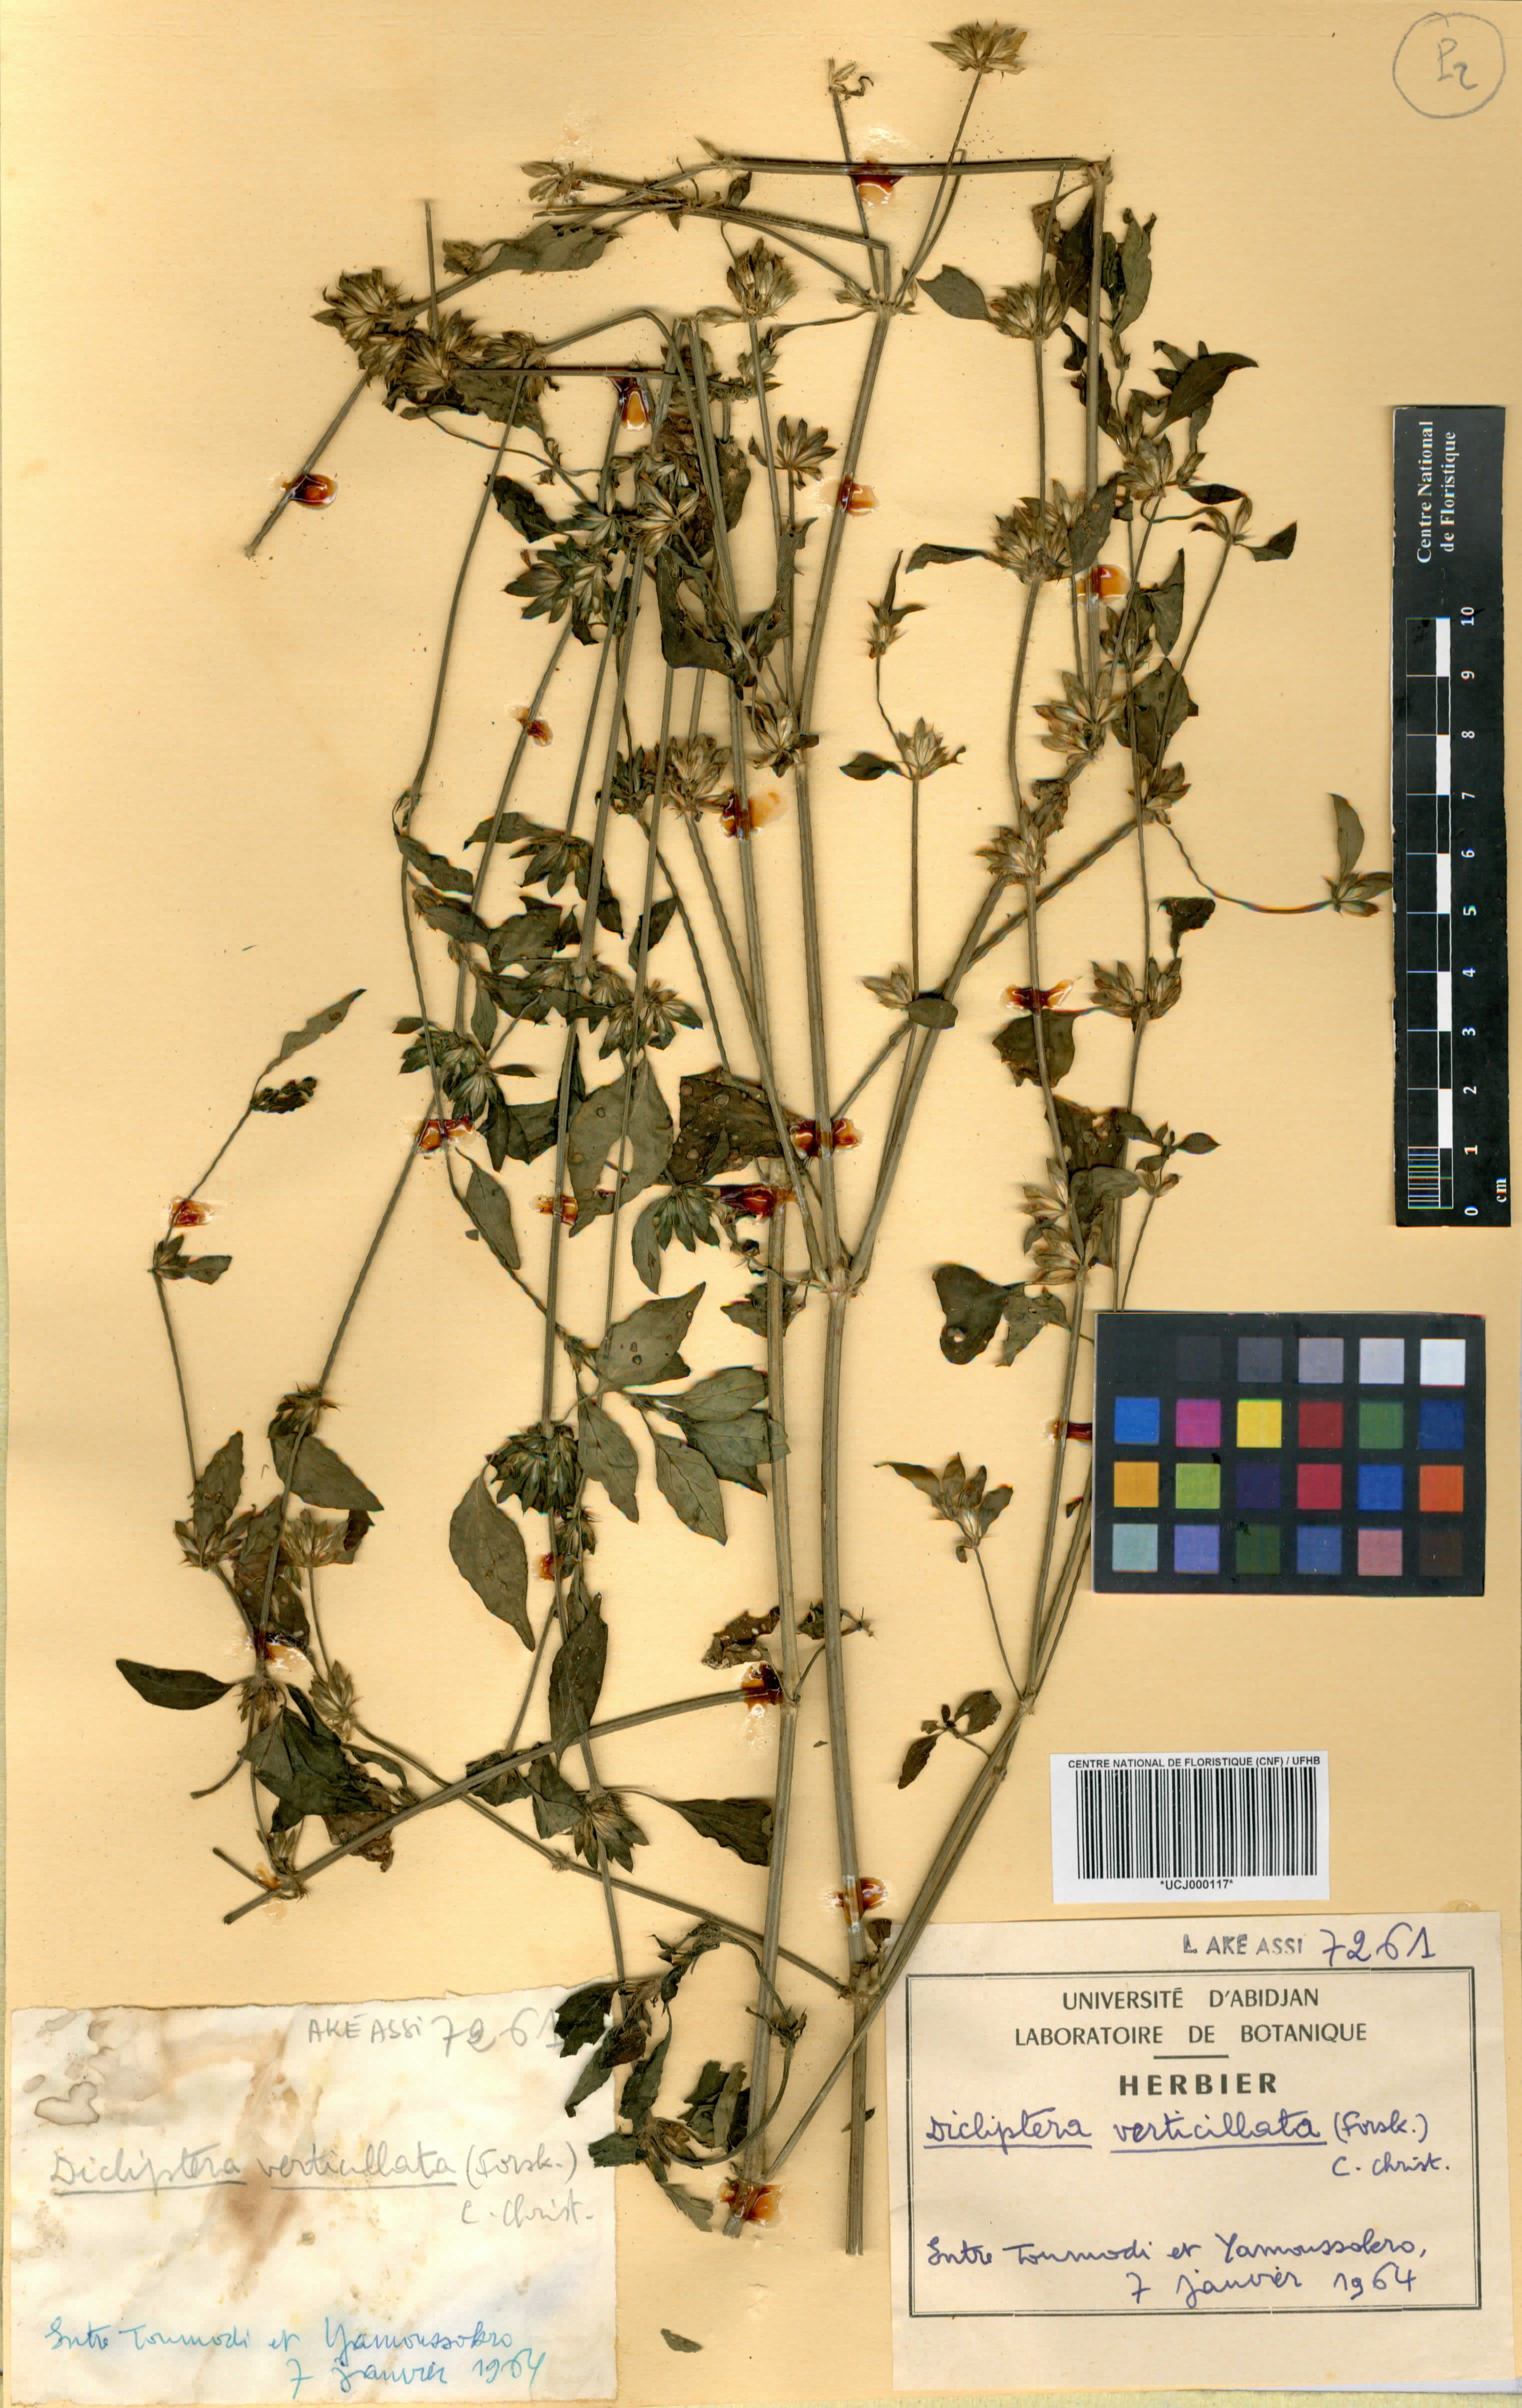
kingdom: Plantae
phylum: Tracheophyta
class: Magnoliopsida
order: Lamiales
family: Acanthaceae
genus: Dicliptera
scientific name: Dicliptera verticillata
